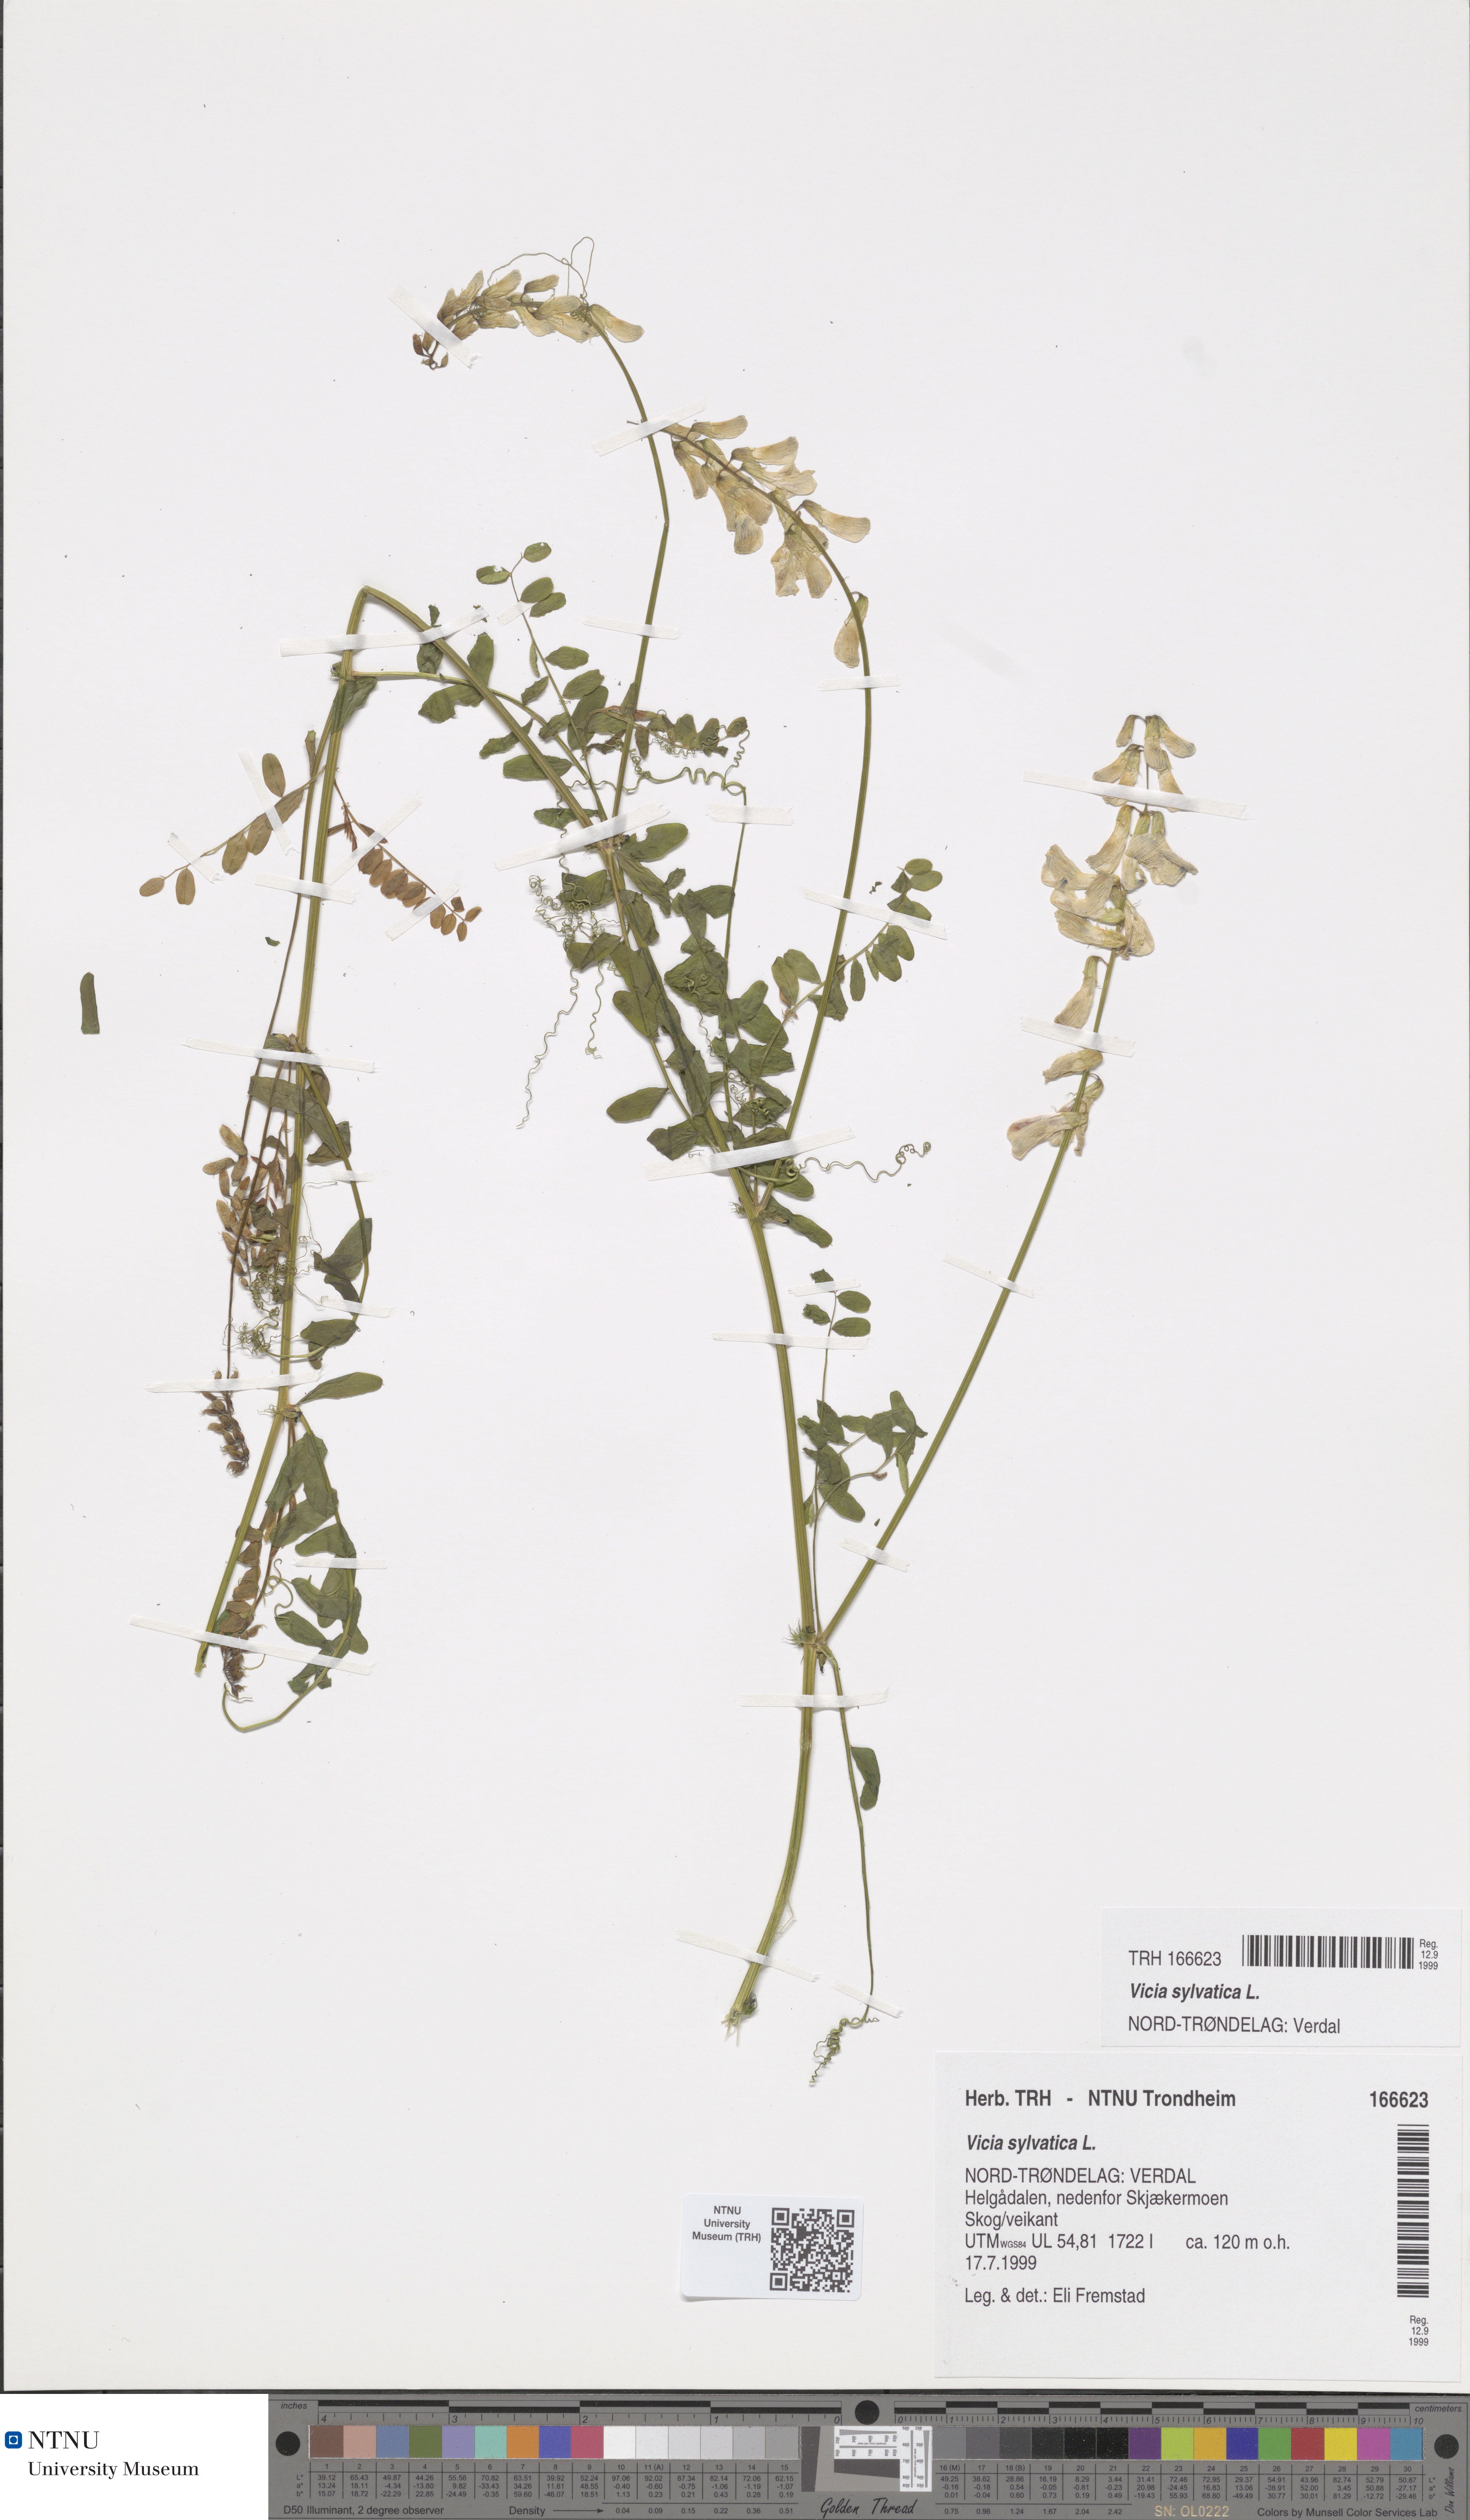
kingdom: Plantae
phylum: Tracheophyta
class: Magnoliopsida
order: Fabales
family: Fabaceae
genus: Vicia
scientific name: Vicia sylvatica
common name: Wood vetch
